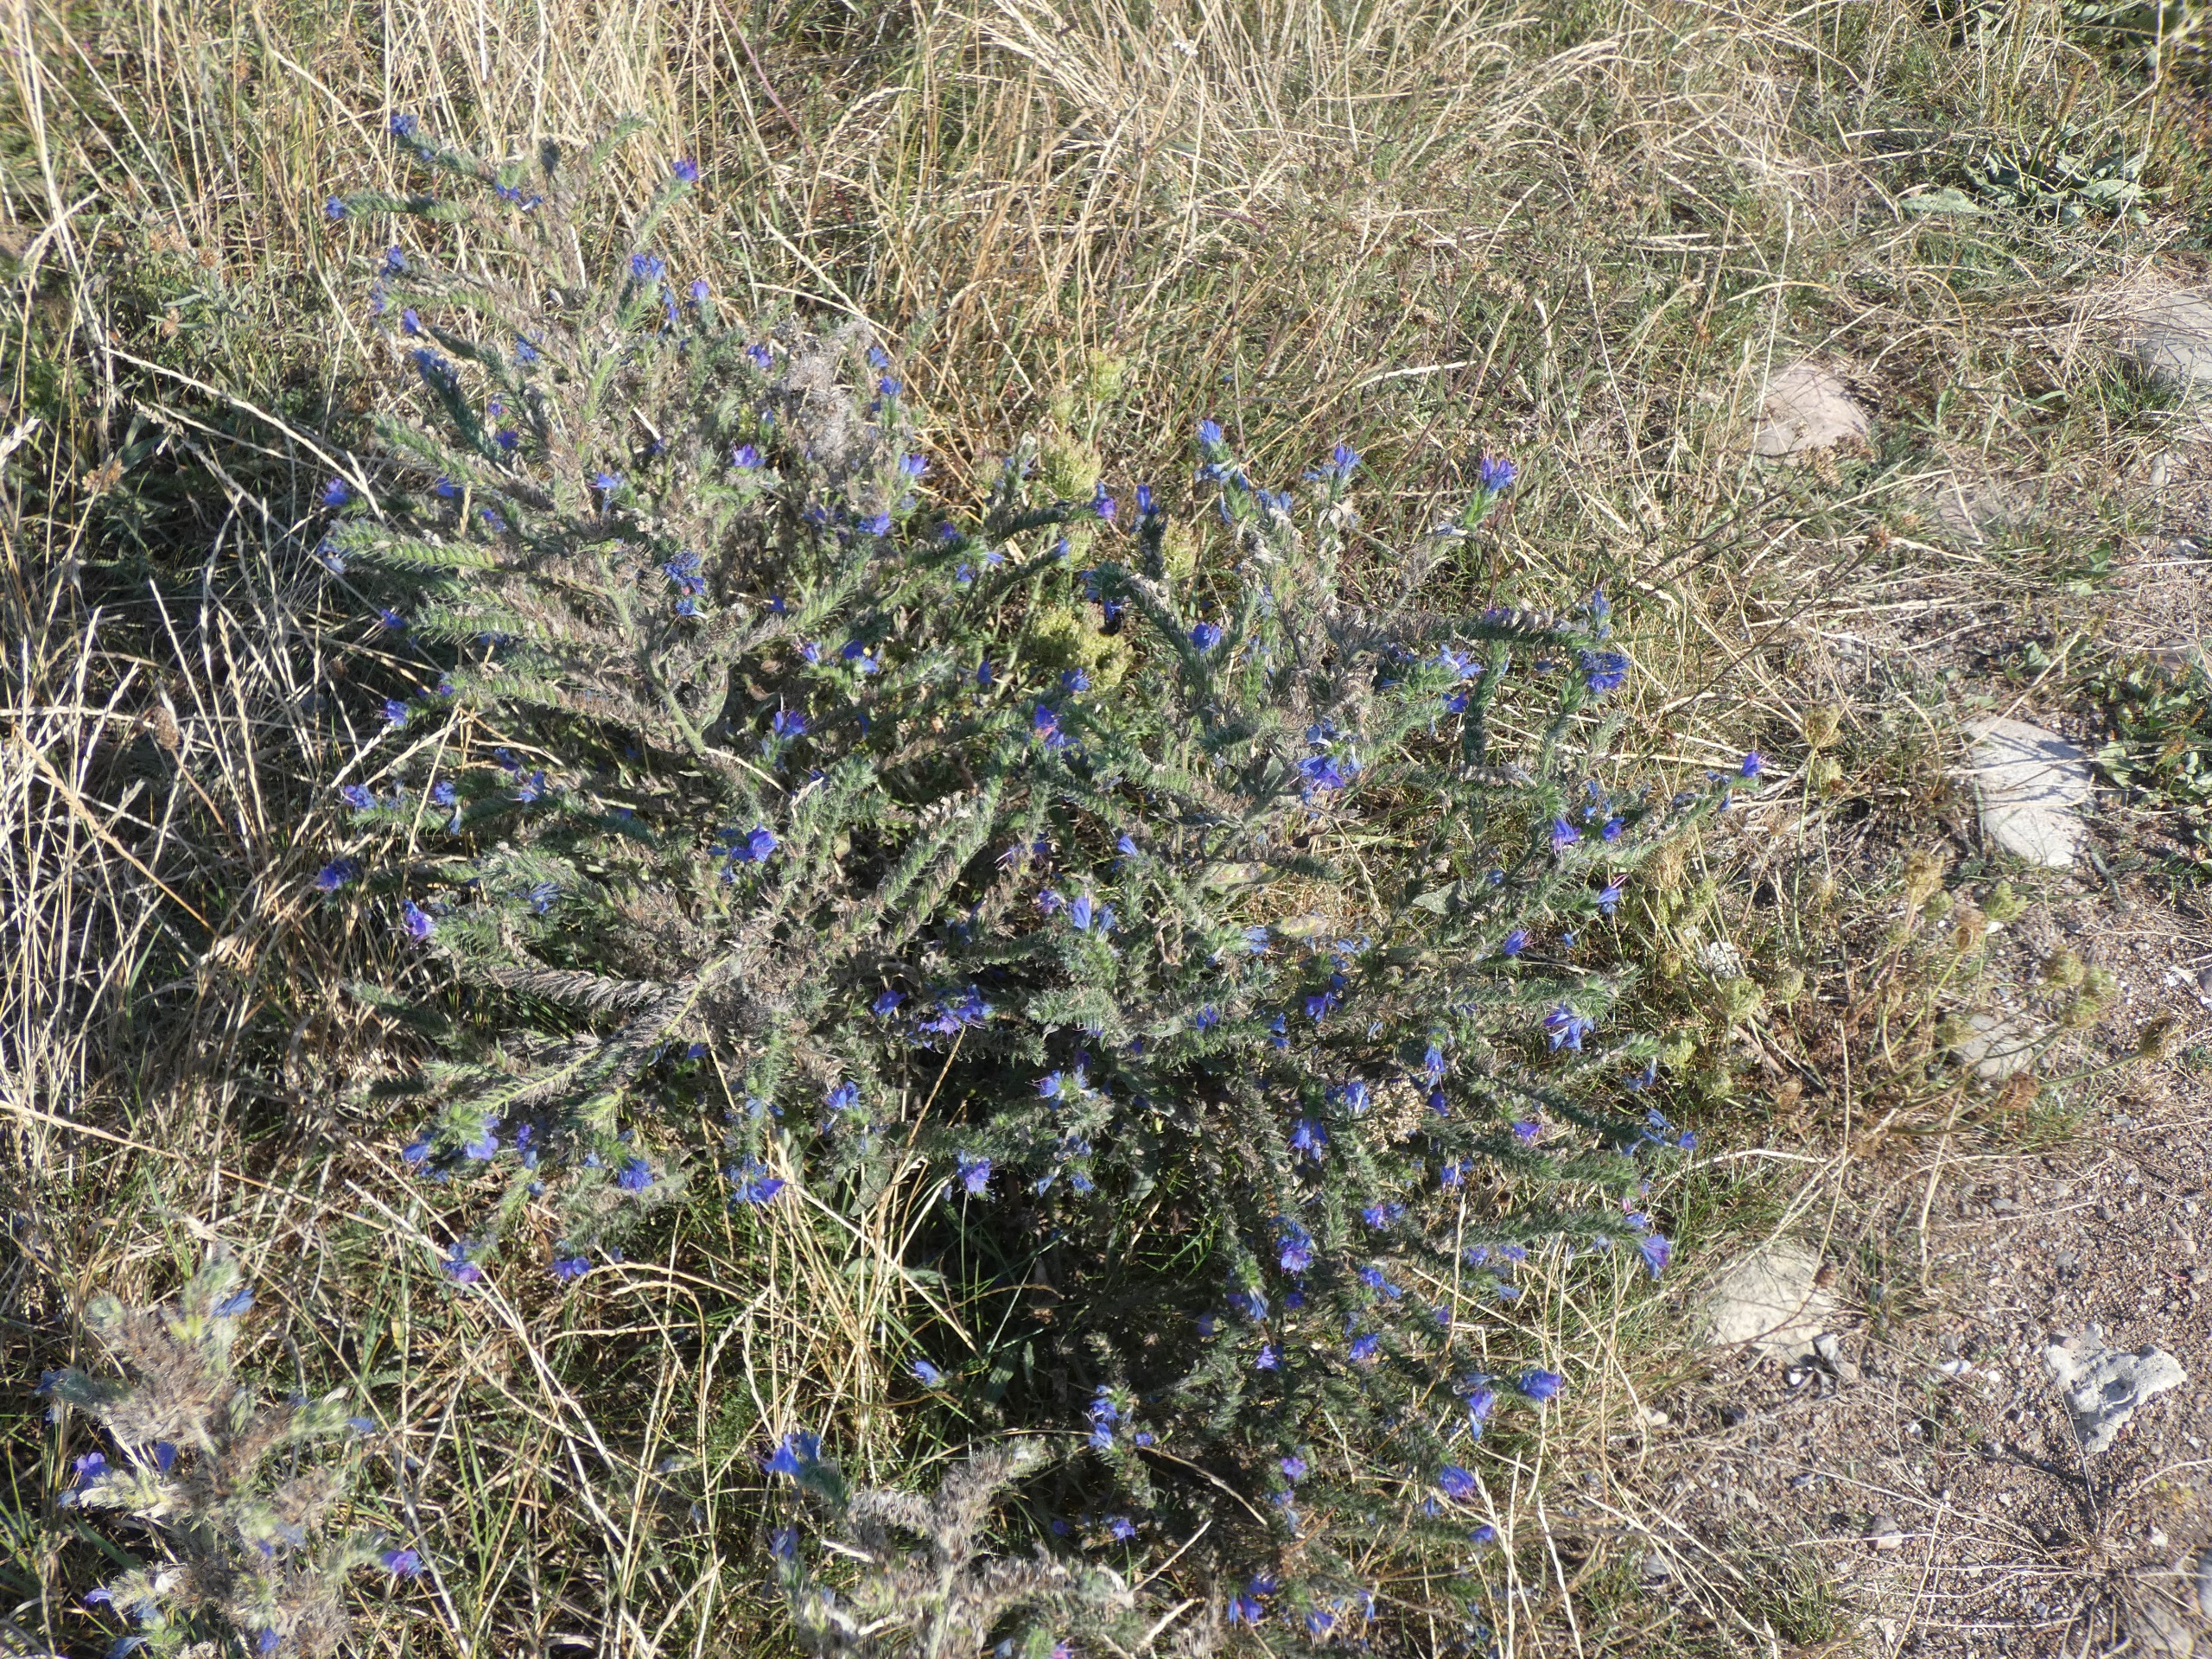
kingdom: Plantae
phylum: Tracheophyta
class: Magnoliopsida
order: Boraginales
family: Boraginaceae
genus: Echium
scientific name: Echium vulgare
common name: Slangehoved
